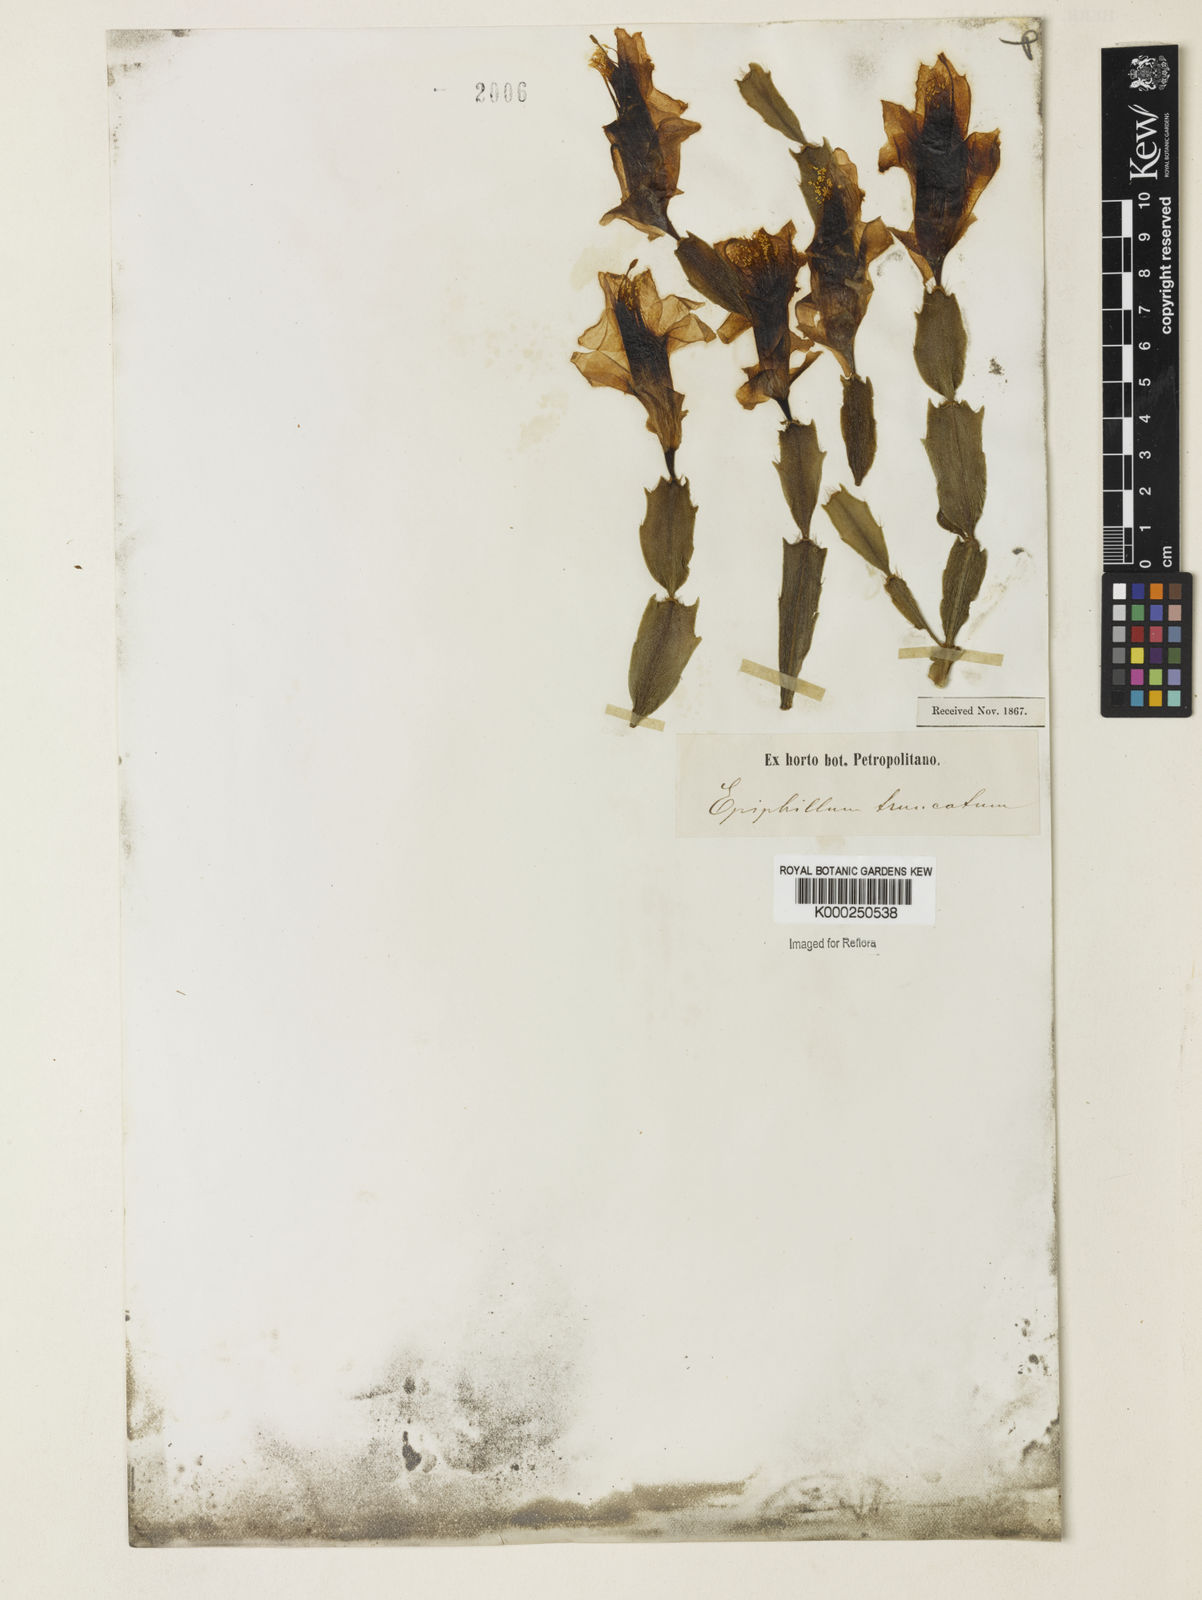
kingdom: Plantae
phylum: Tracheophyta
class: Magnoliopsida
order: Caryophyllales
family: Cactaceae
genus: Schlumbergera
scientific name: Schlumbergera truncata
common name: Thanksgiving cactus
